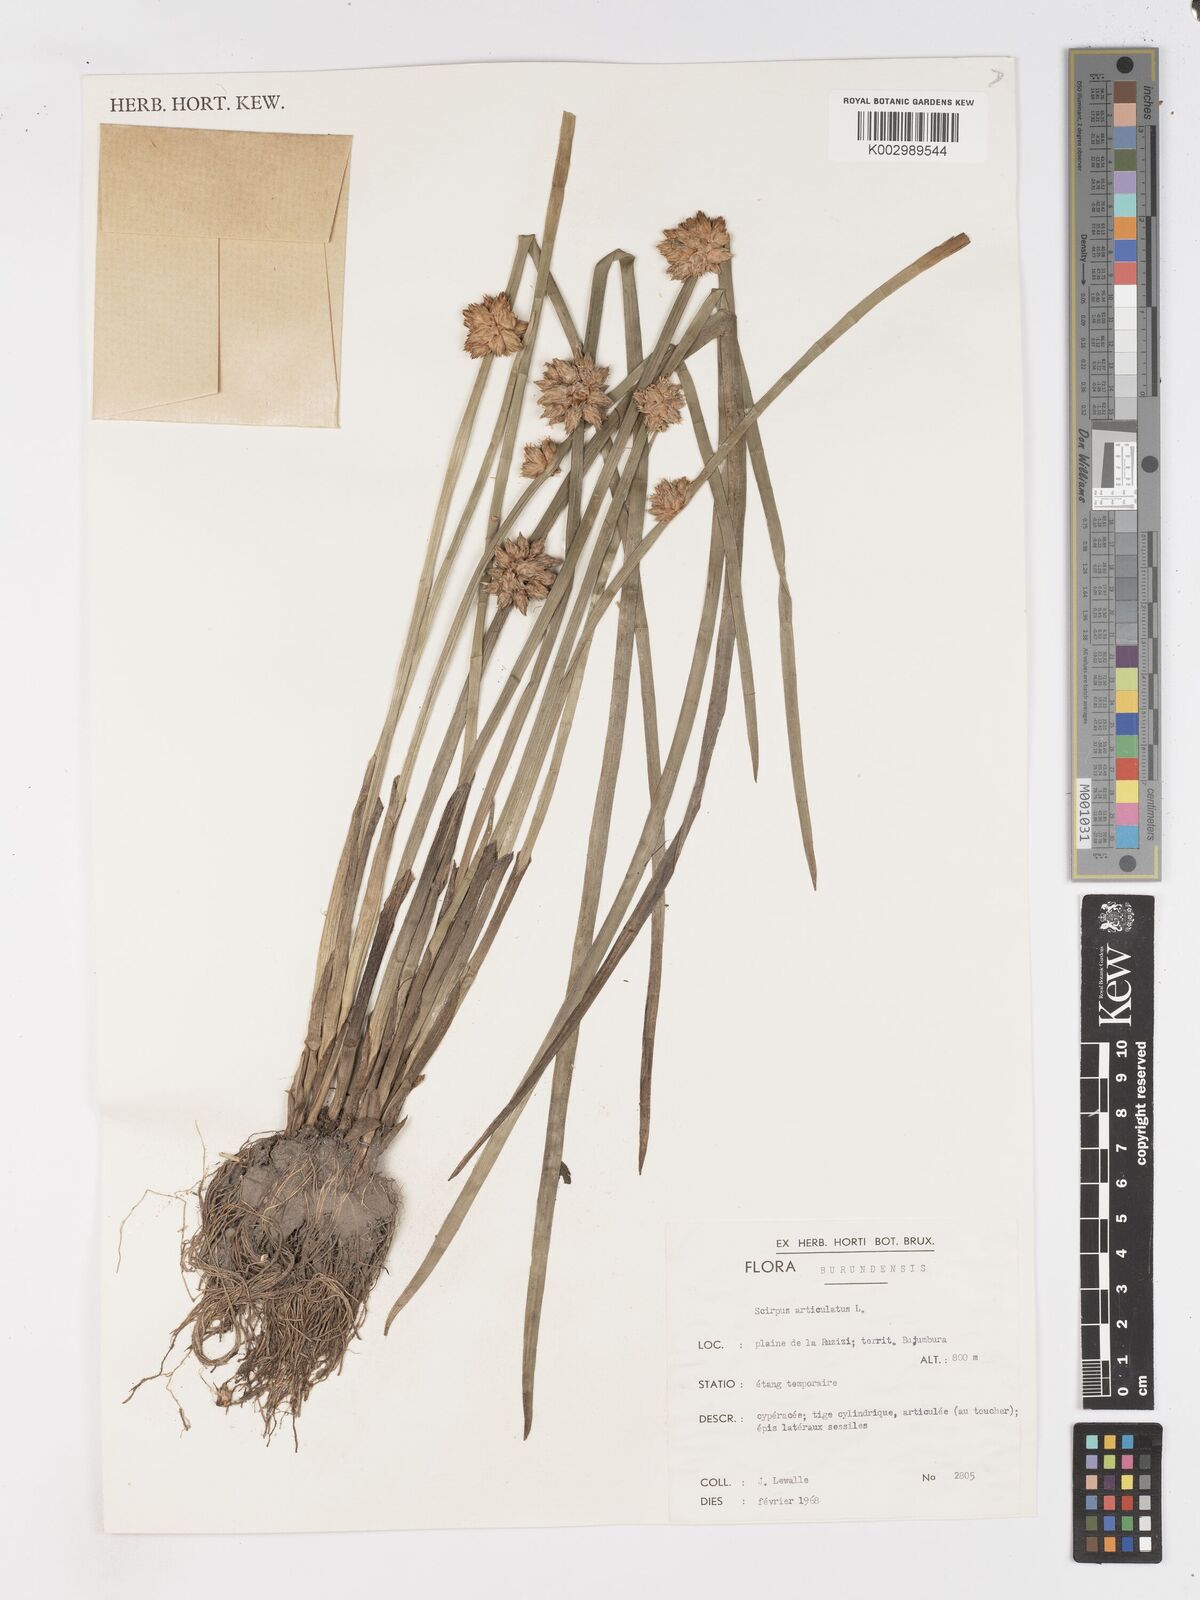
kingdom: Plantae
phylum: Tracheophyta
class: Liliopsida
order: Poales
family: Cyperaceae
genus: Schoenoplectiella
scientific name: Schoenoplectiella articulata
